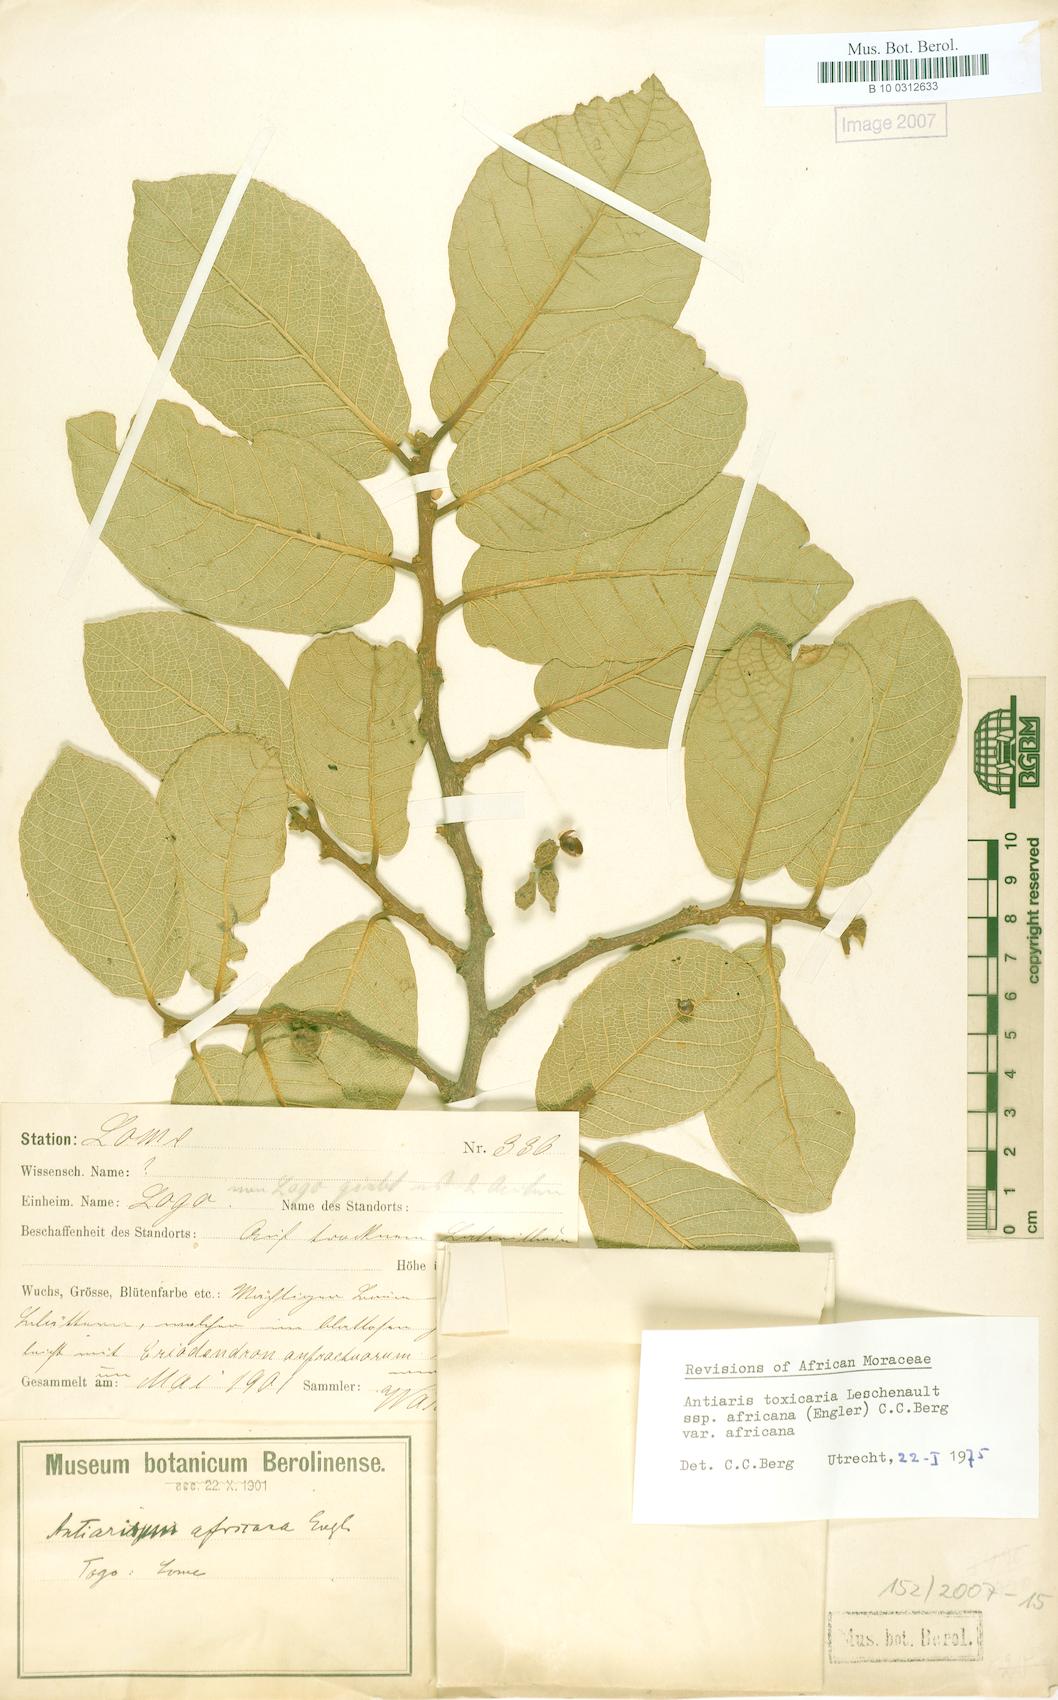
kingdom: Plantae
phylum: Tracheophyta
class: Magnoliopsida
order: Rosales
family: Moraceae
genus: Antiaris
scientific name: Antiaris toxicaria
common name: Sackingtree
